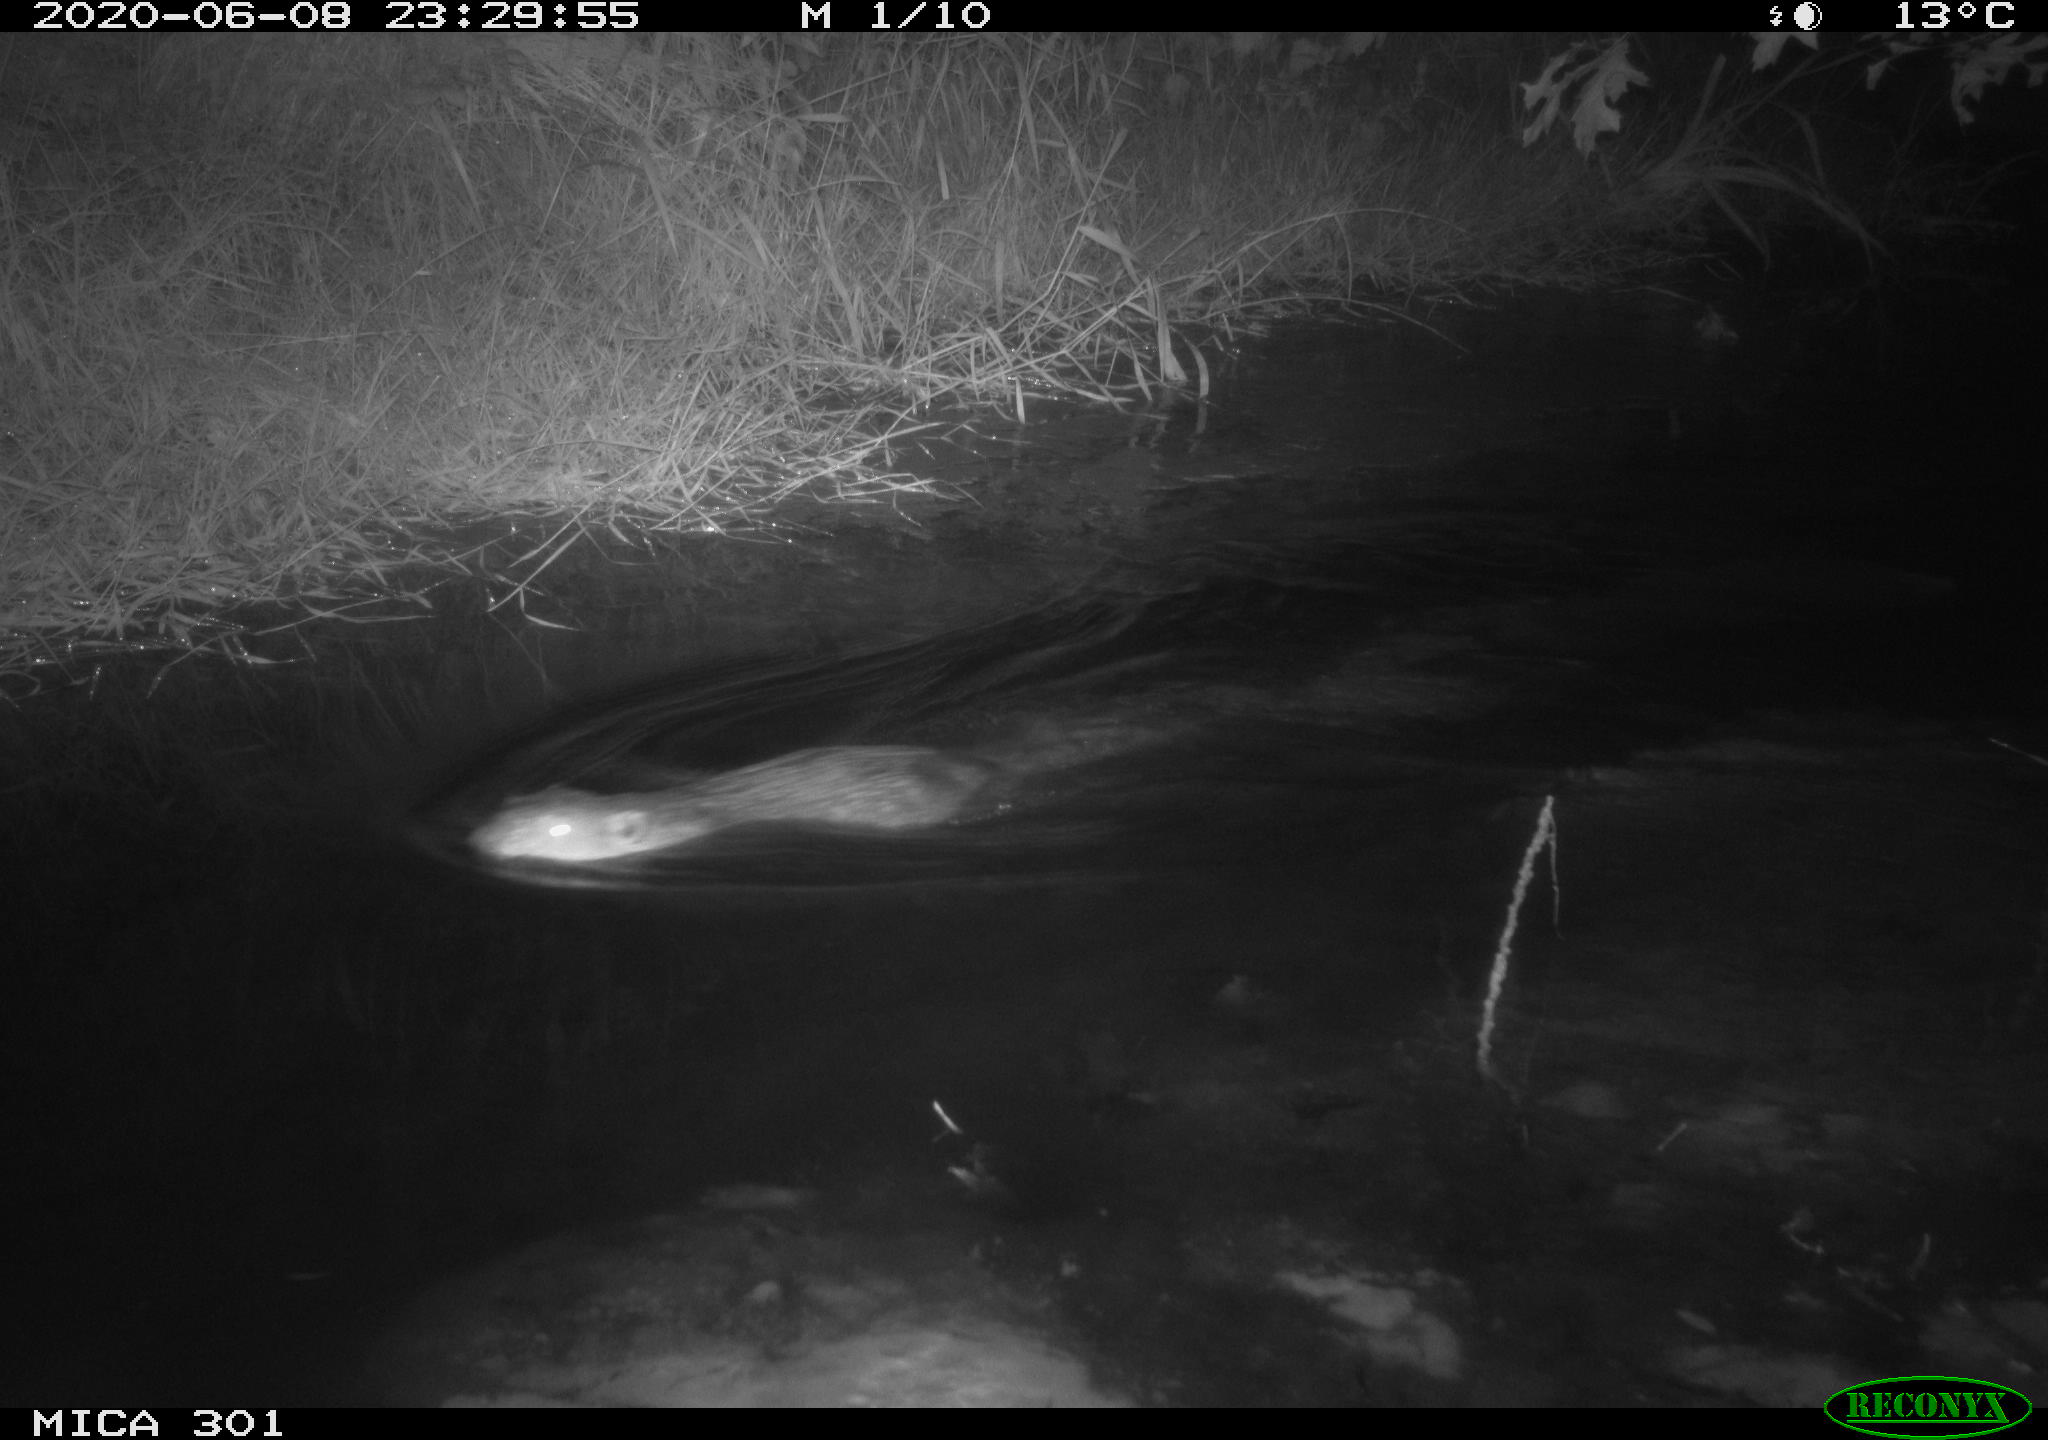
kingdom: Animalia
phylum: Chordata
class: Mammalia
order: Rodentia
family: Castoridae
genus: Castor
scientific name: Castor fiber
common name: Eurasian beaver
